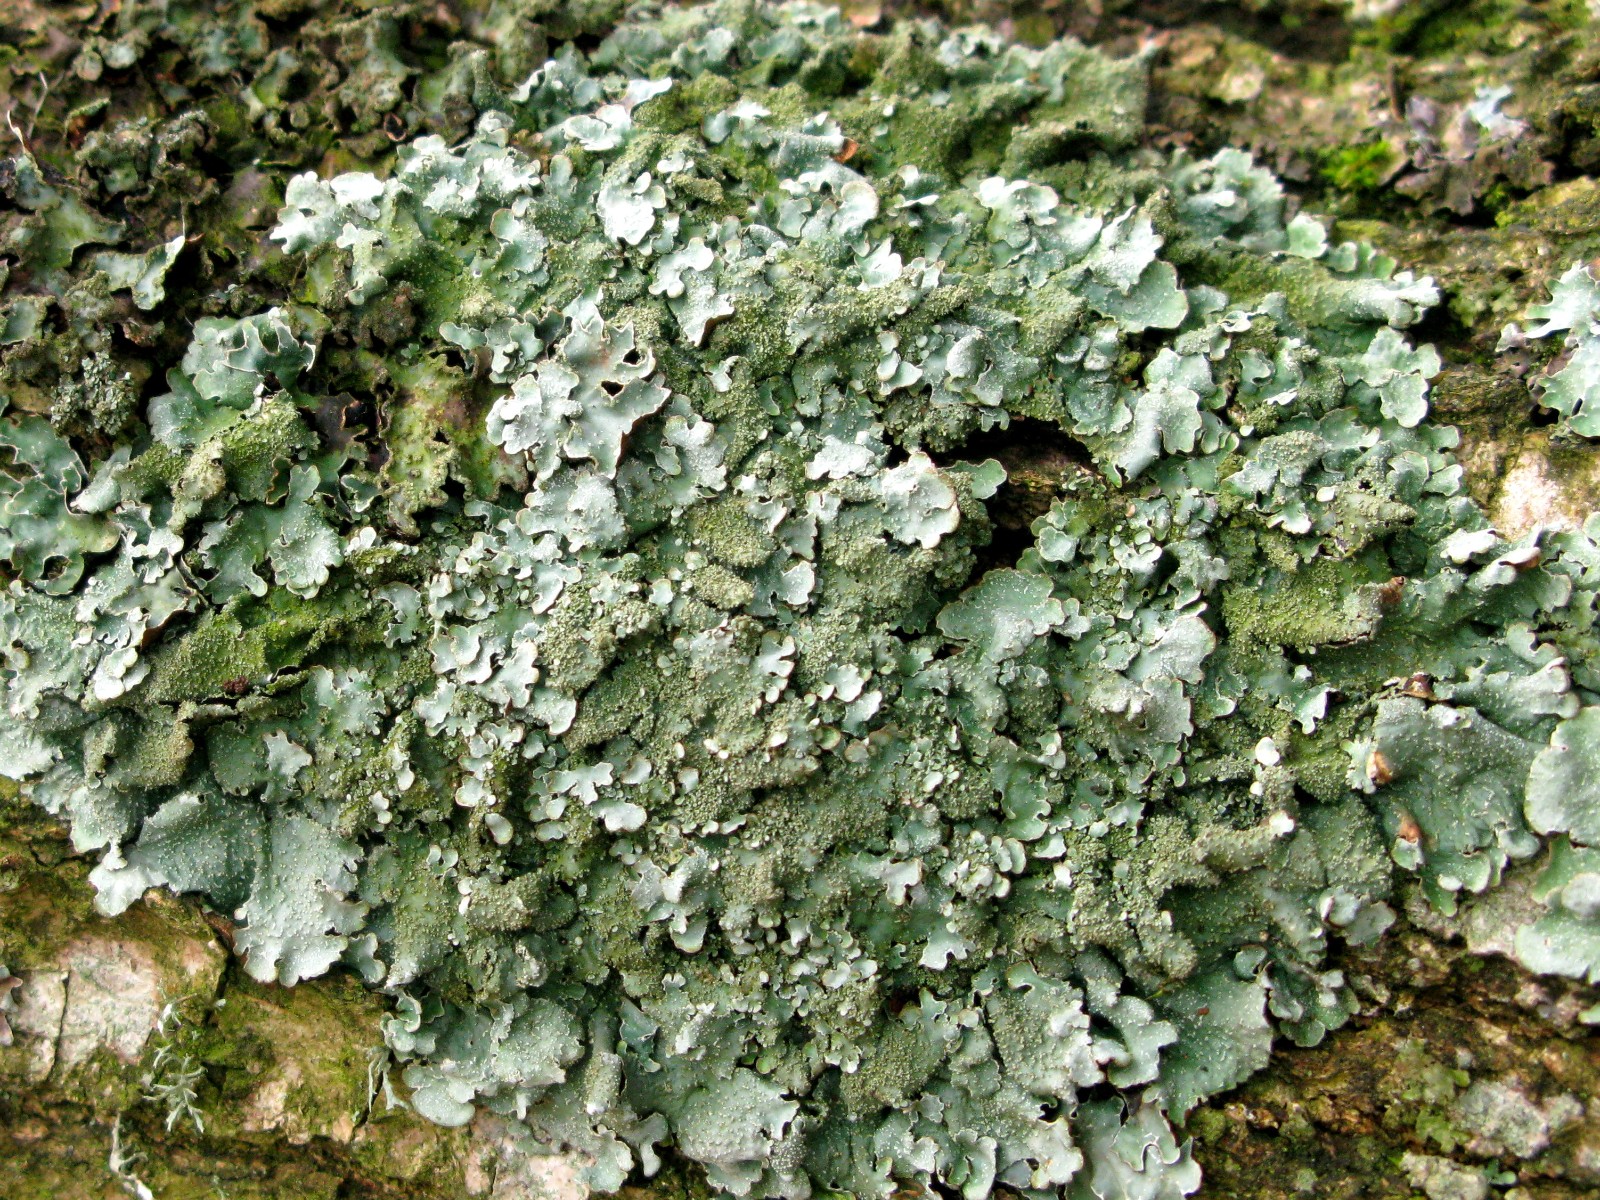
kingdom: Fungi
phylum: Ascomycota
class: Lecanoromycetes
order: Lecanorales
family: Parmeliaceae
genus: Parmelia
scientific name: Parmelia ernstiae
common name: rimstift-skållav
